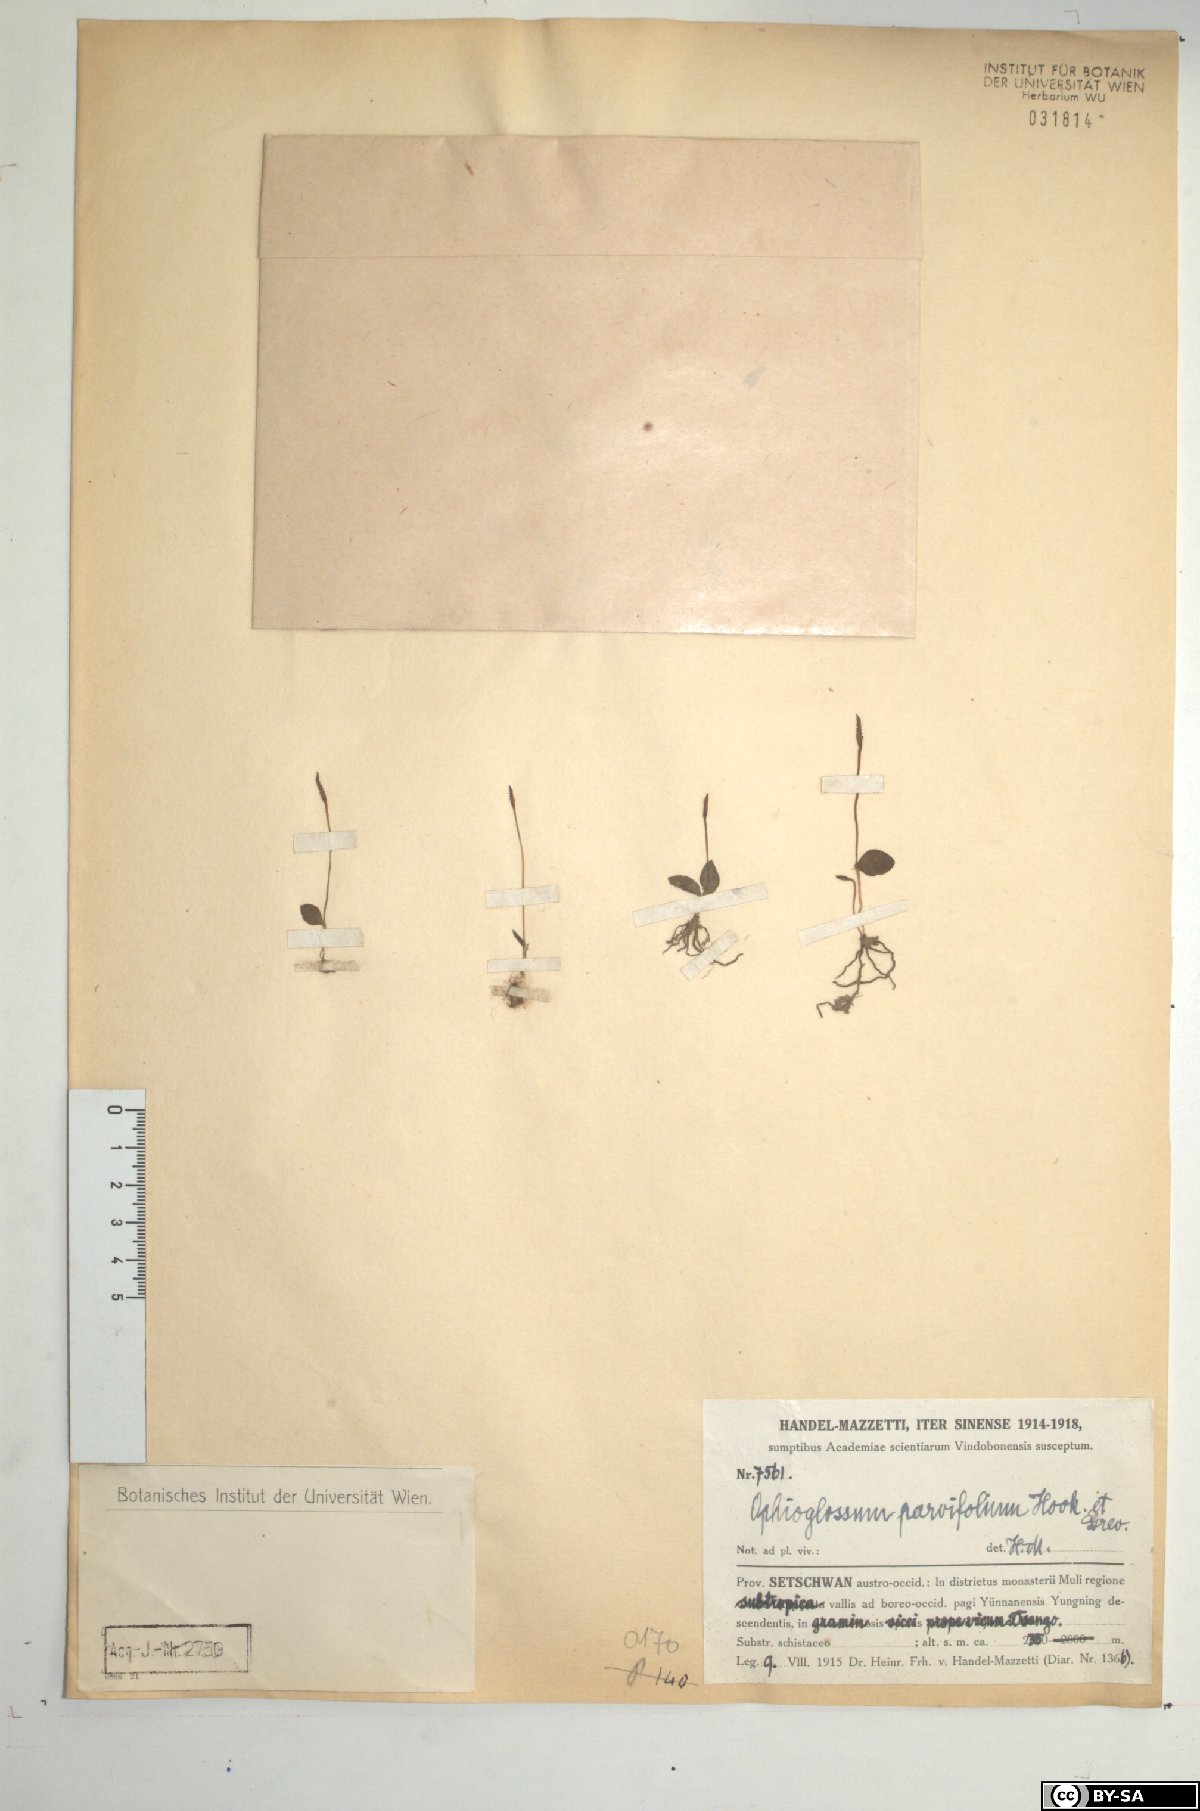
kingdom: Plantae
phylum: Tracheophyta
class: Polypodiopsida
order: Ophioglossales
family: Ophioglossaceae
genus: Ophioglossum
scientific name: Ophioglossum parvifolium
